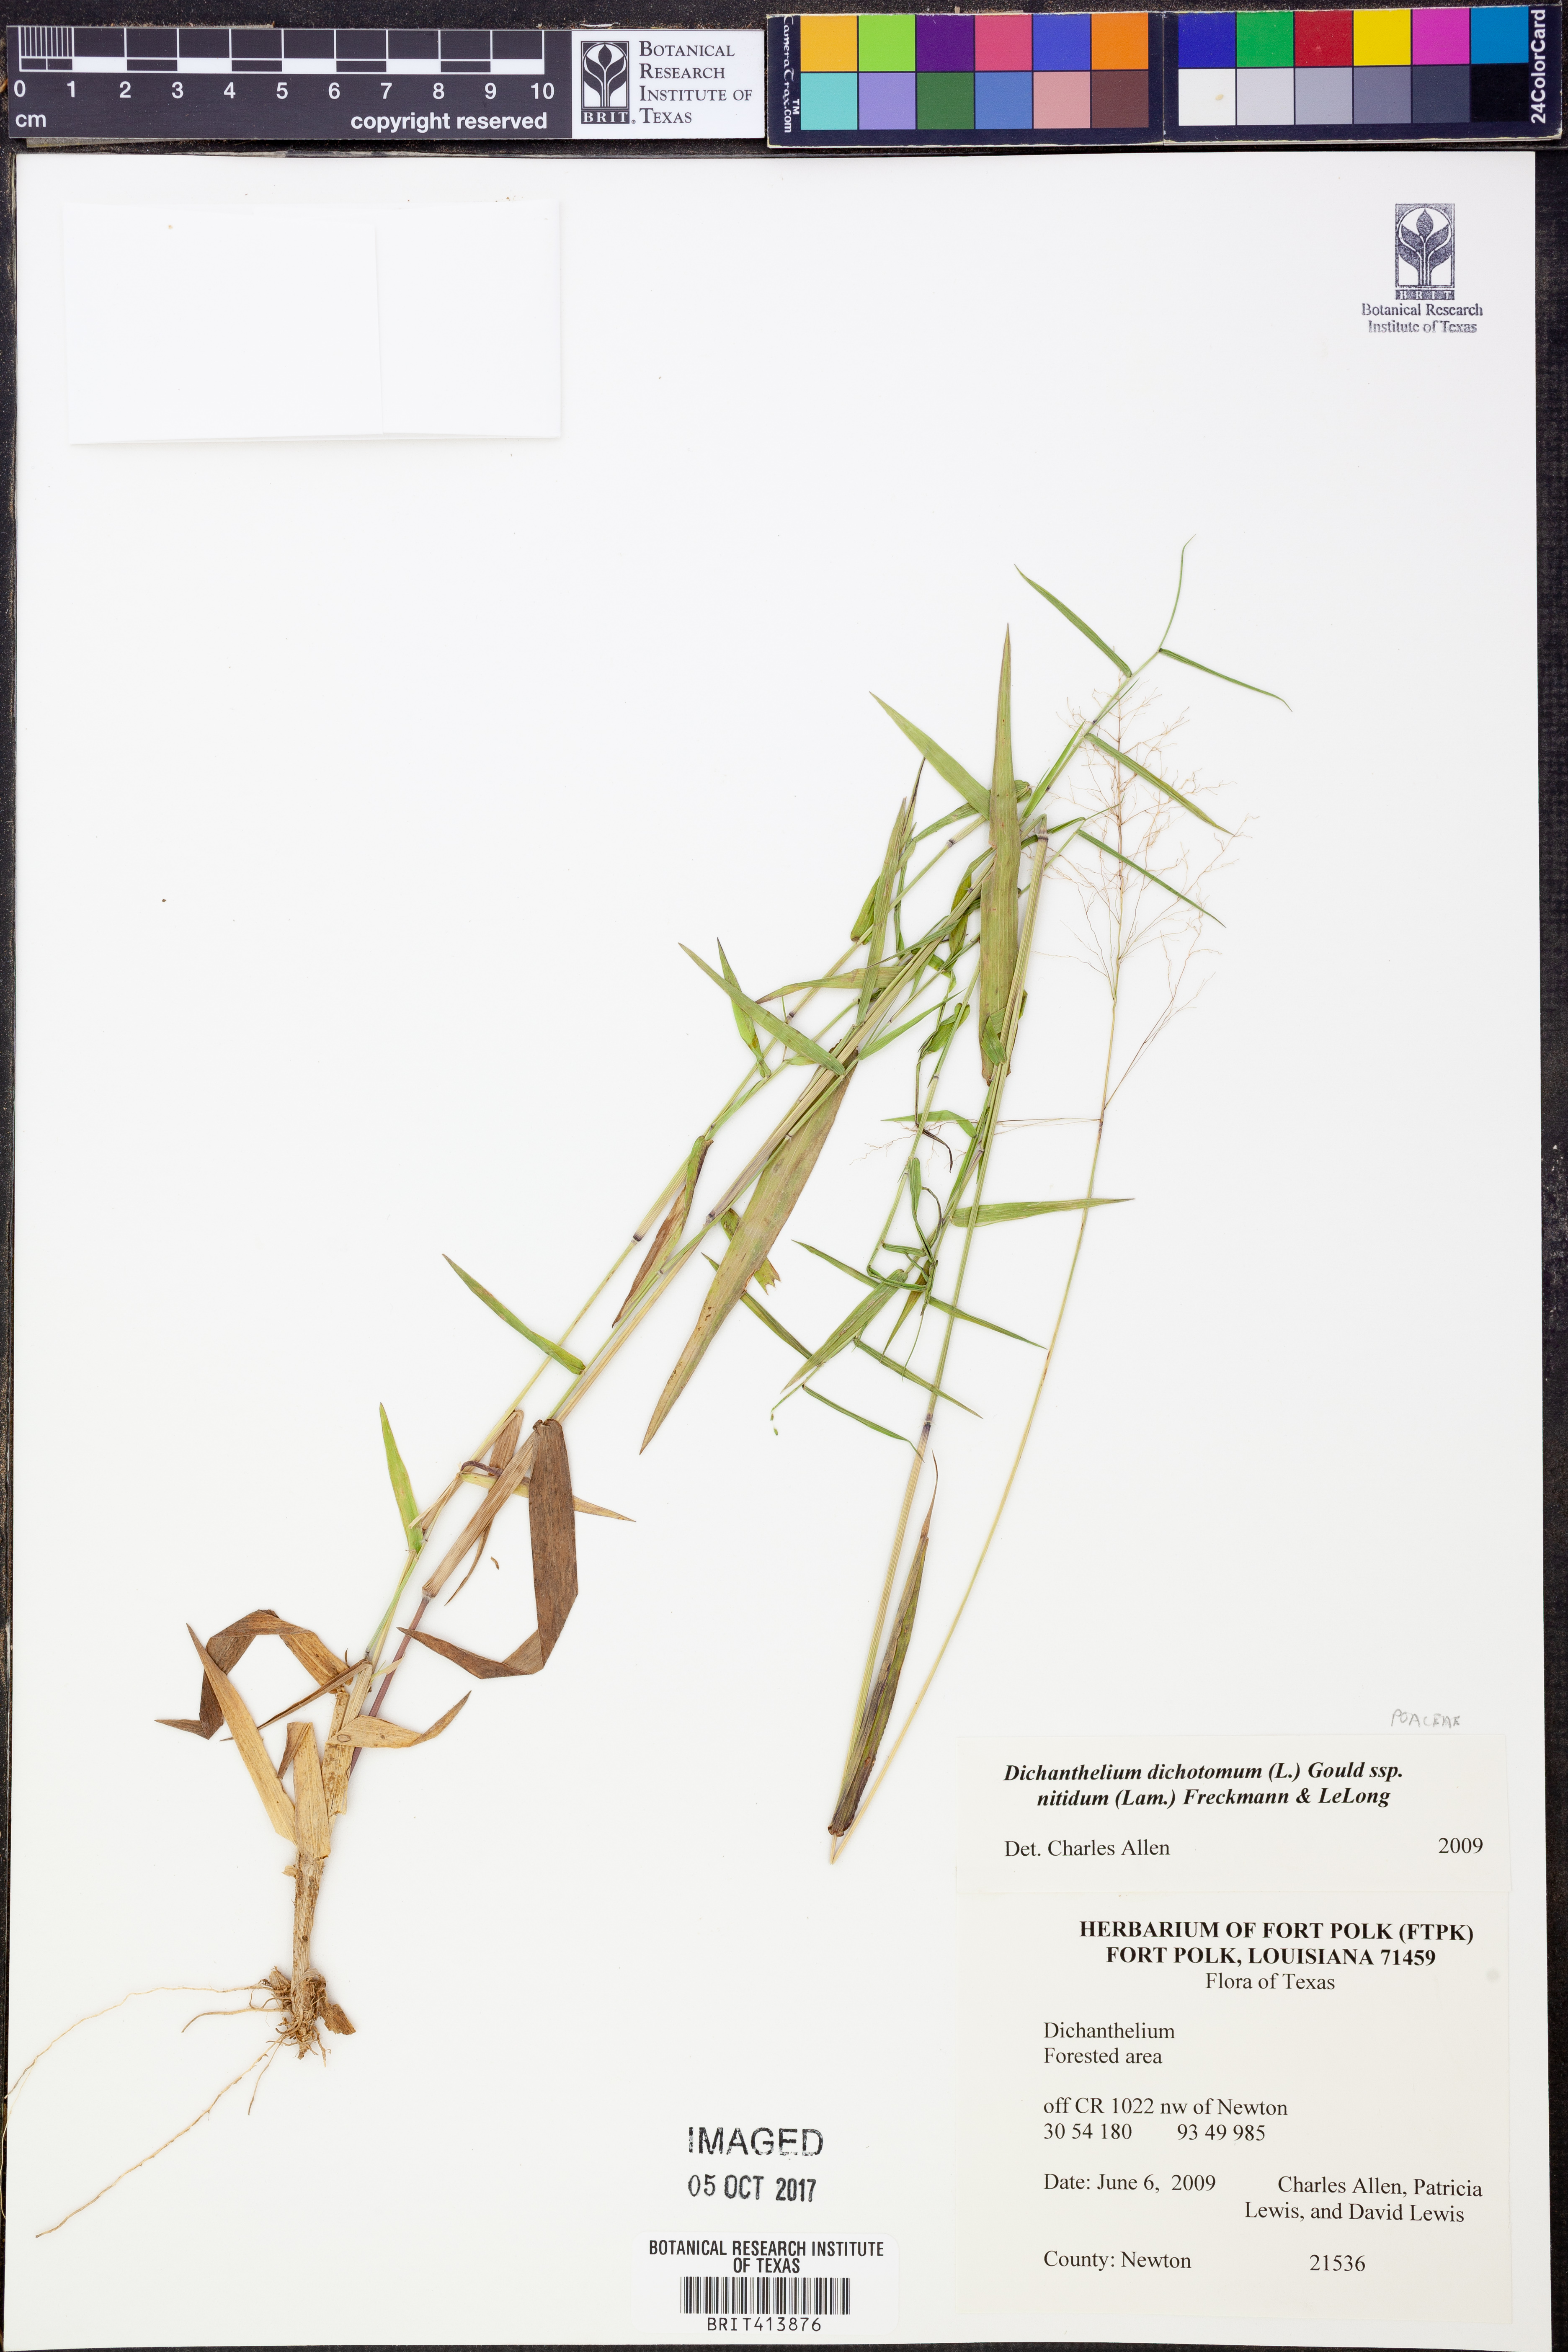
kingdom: Plantae
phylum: Tracheophyta
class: Liliopsida
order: Poales
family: Poaceae
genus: Dichanthelium
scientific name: Dichanthelium dichotomum
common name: Cypress panicgrass
